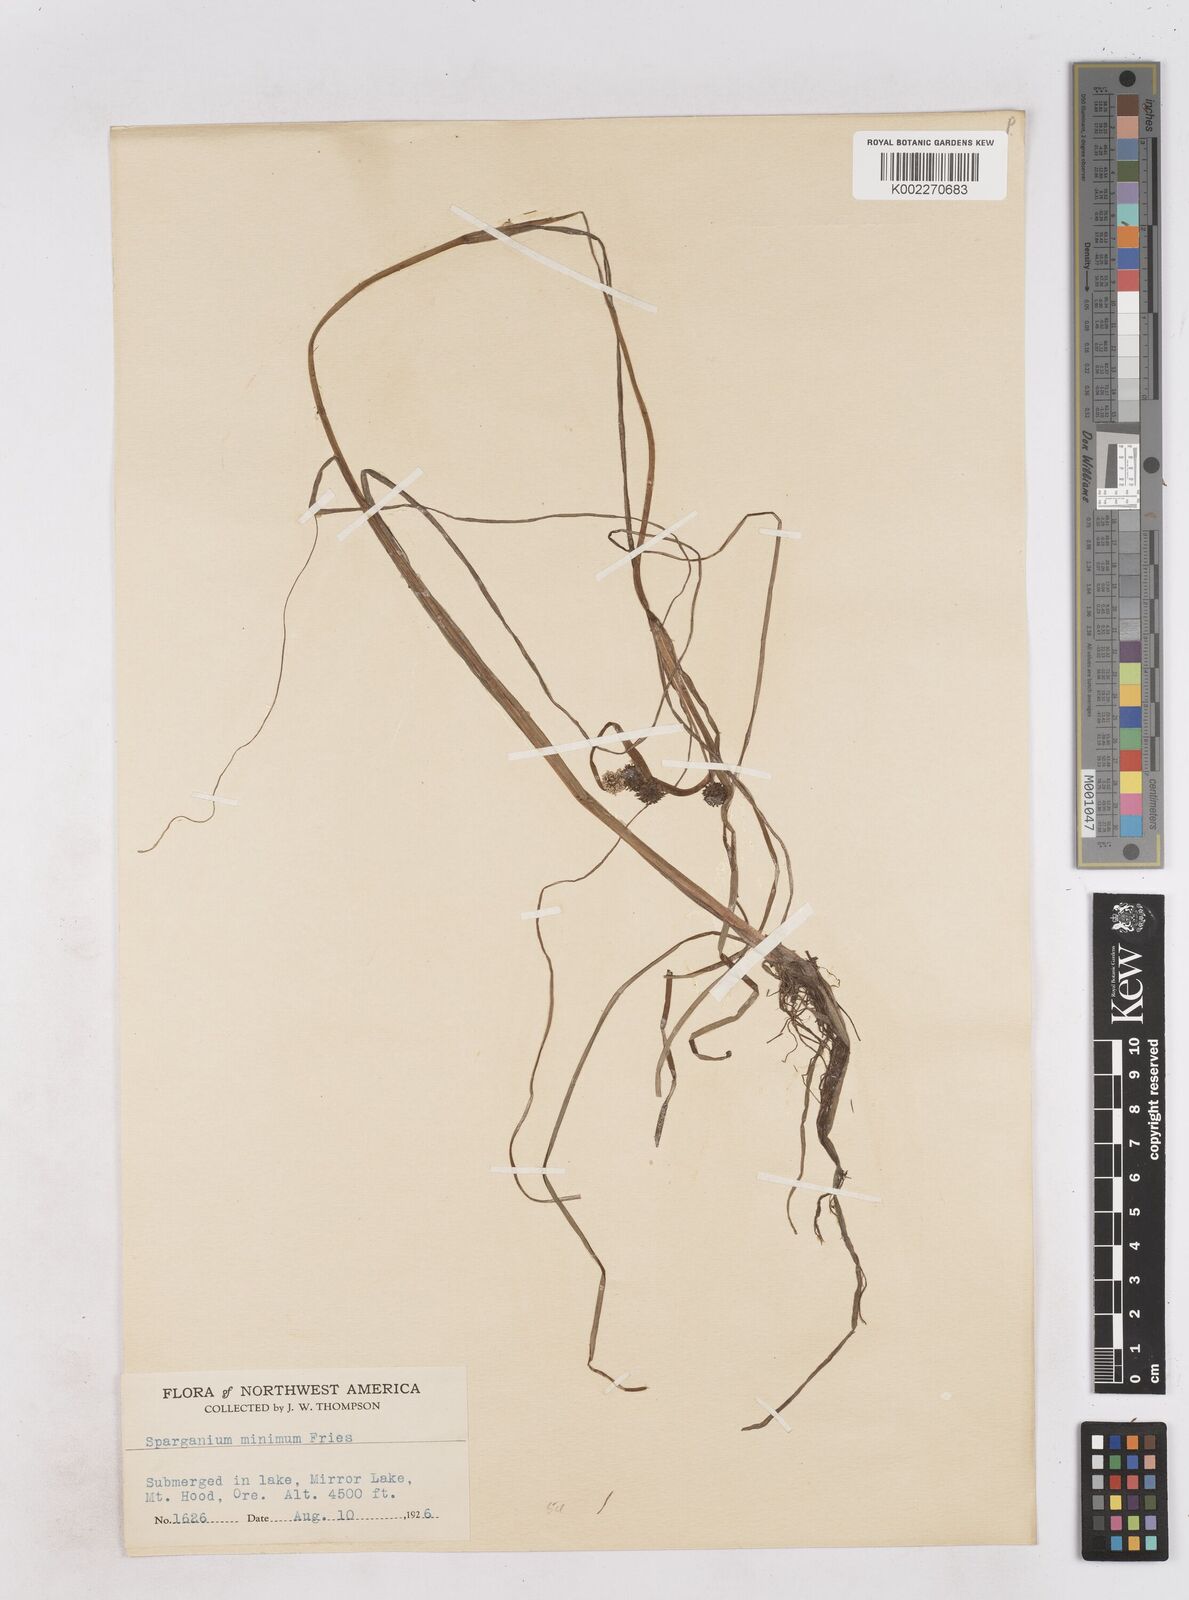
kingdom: Plantae
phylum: Tracheophyta
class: Liliopsida
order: Poales
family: Typhaceae
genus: Sparganium
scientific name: Sparganium natans
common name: Least bur-reed
